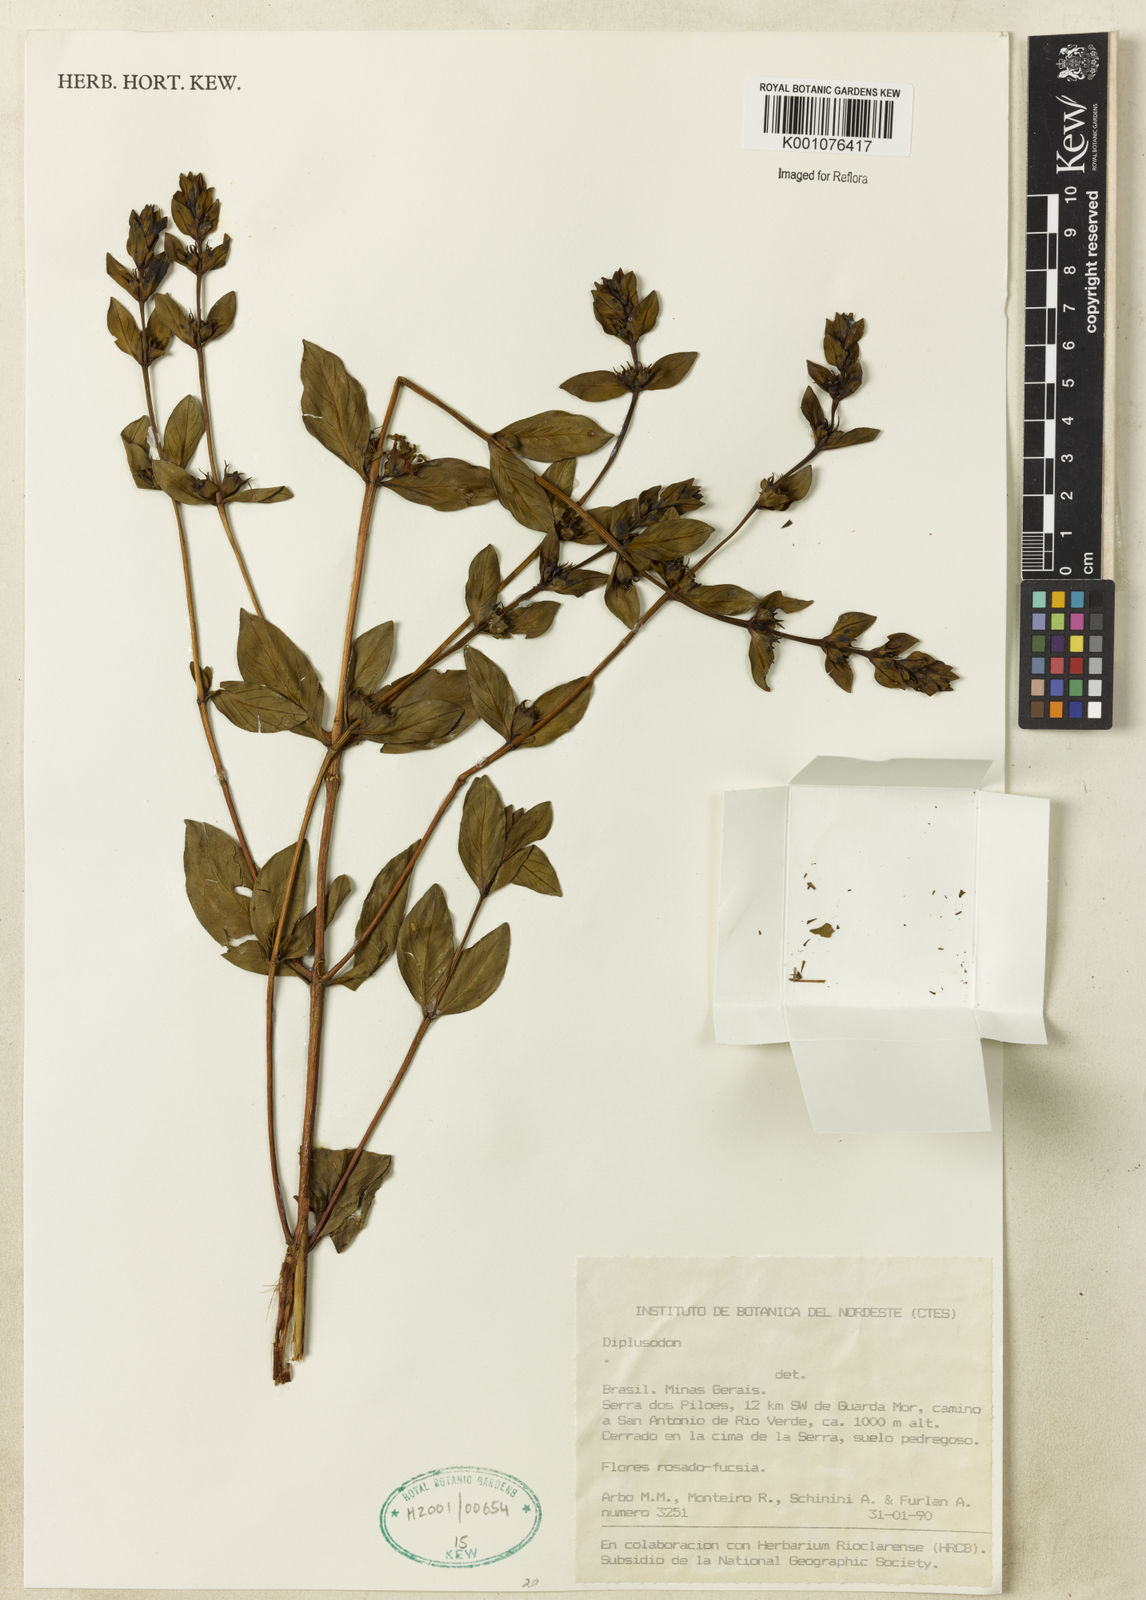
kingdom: Plantae
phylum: Tracheophyta
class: Magnoliopsida
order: Myrtales
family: Lythraceae
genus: Diplusodon
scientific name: Diplusodon
